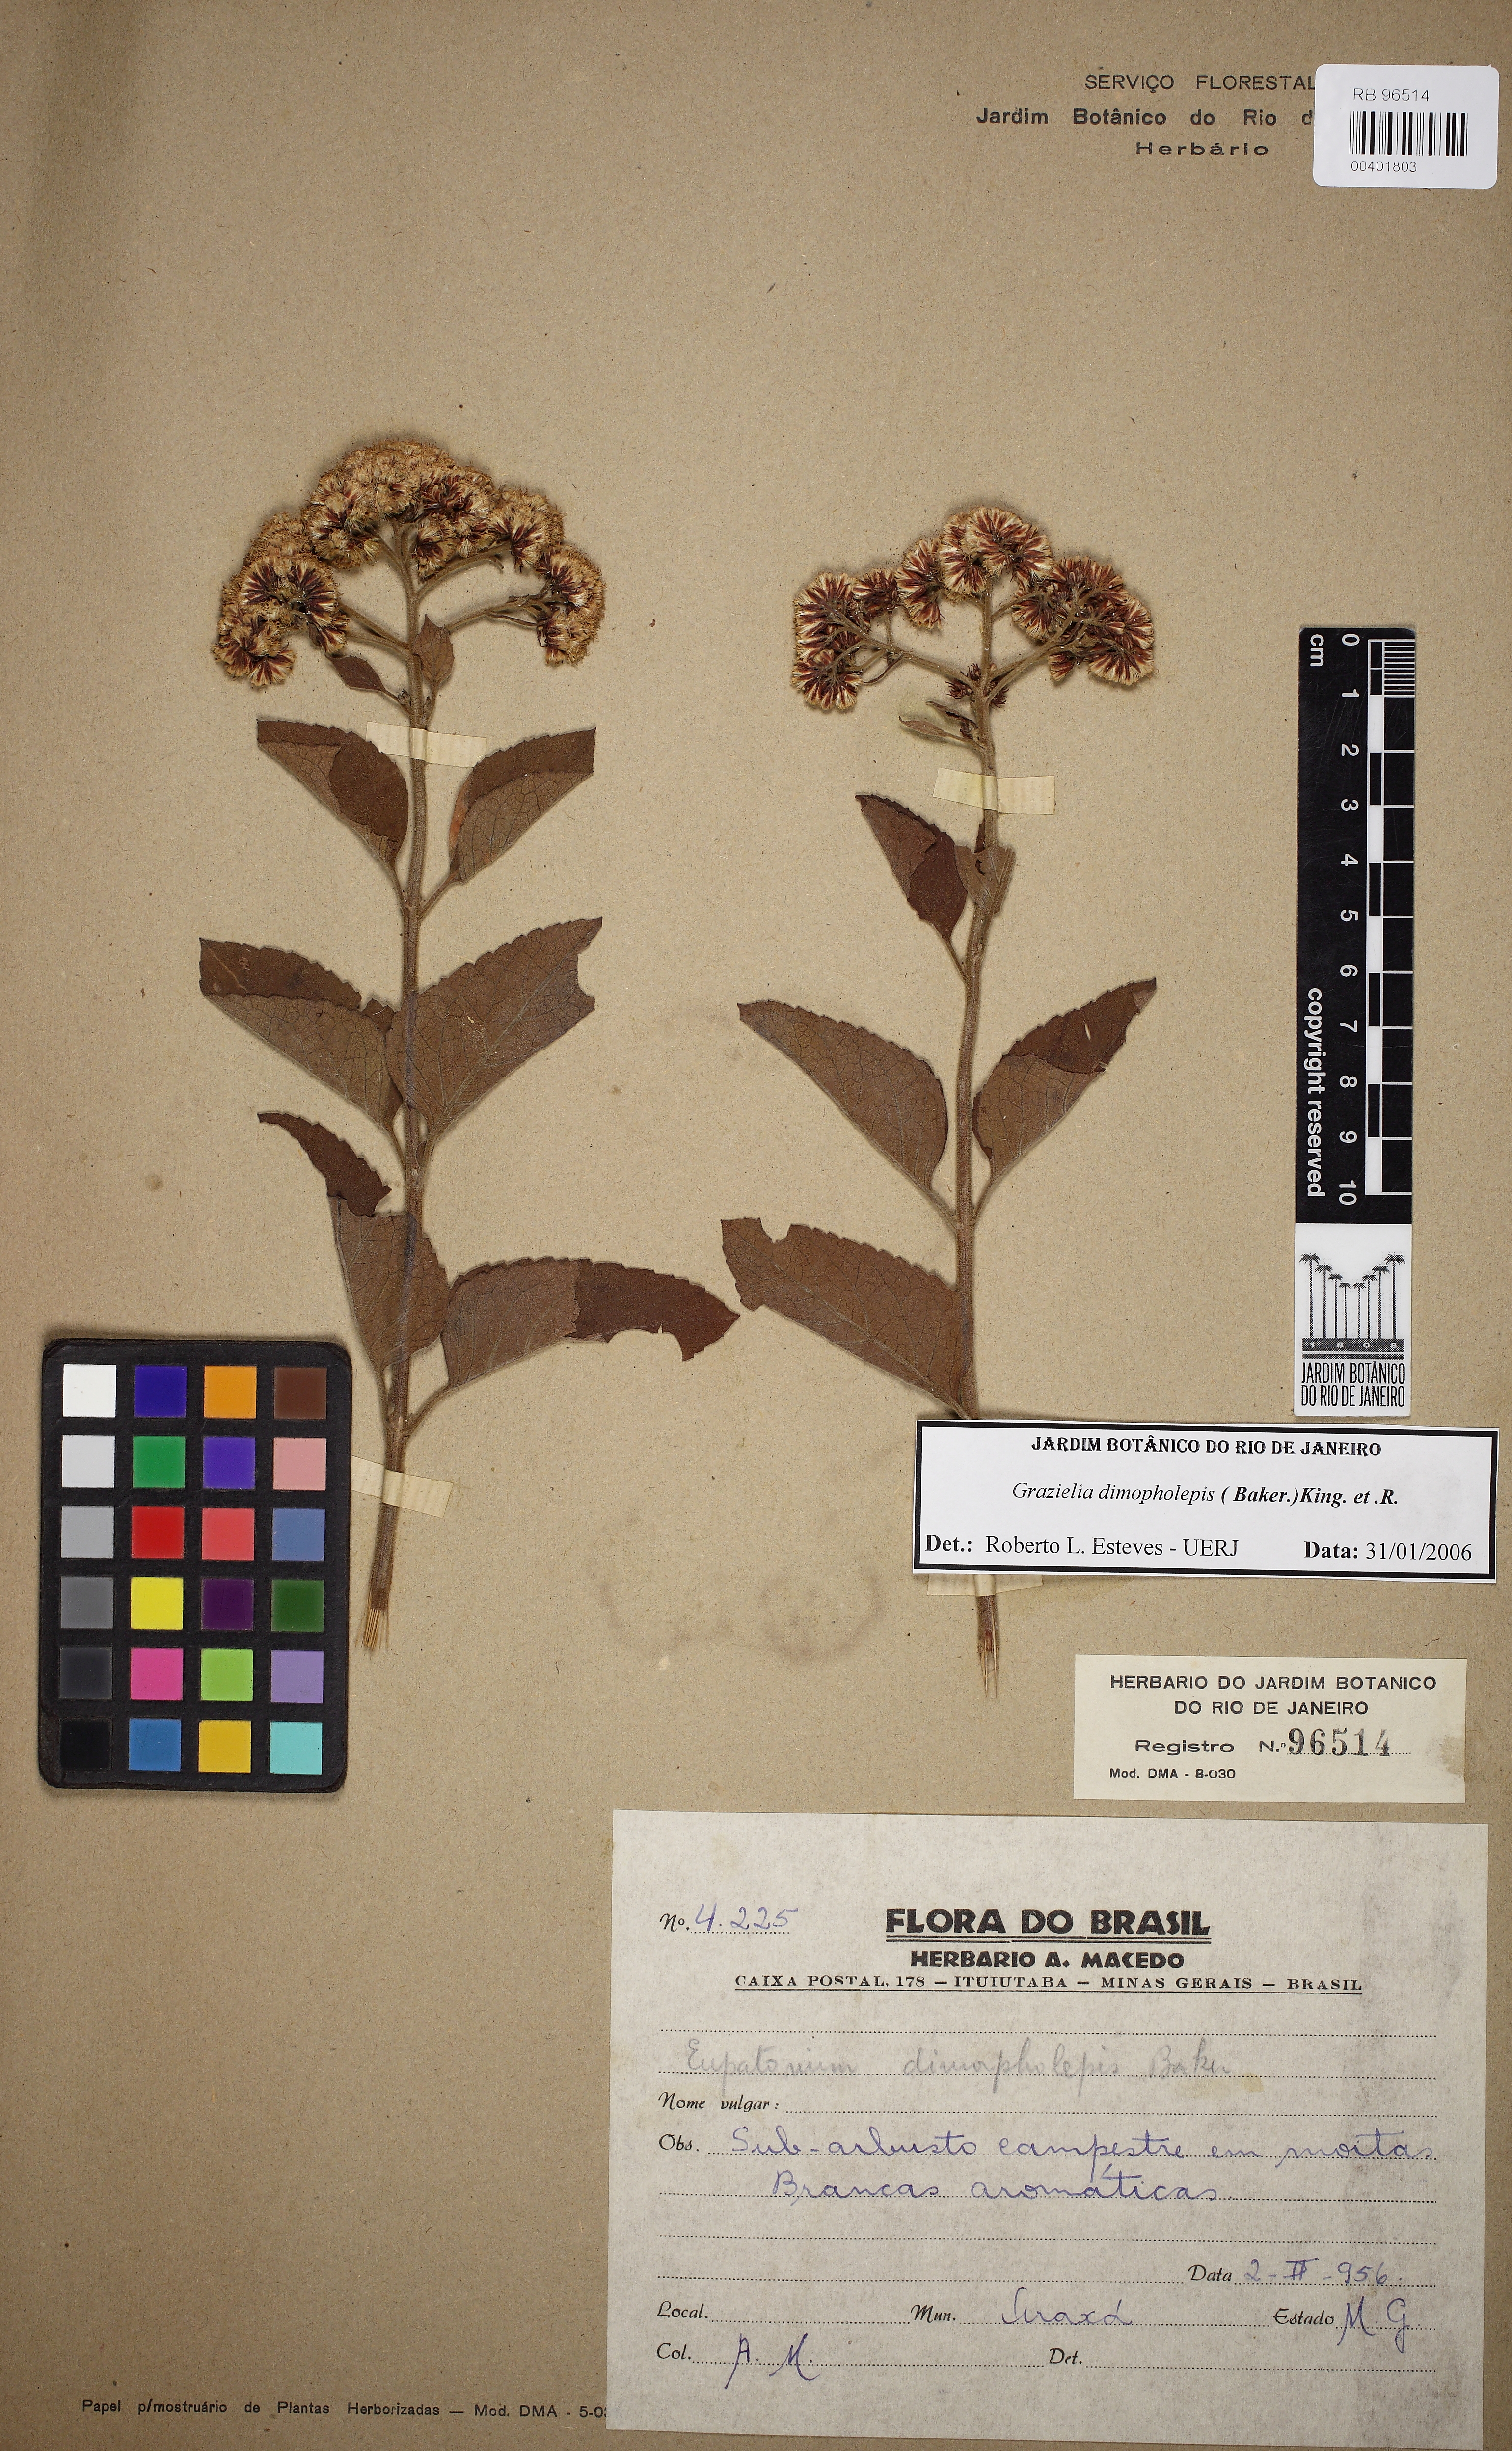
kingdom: Plantae
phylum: Tracheophyta
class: Magnoliopsida
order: Asterales
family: Asteraceae
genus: Grazielia
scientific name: Grazielia dimorpholepis
